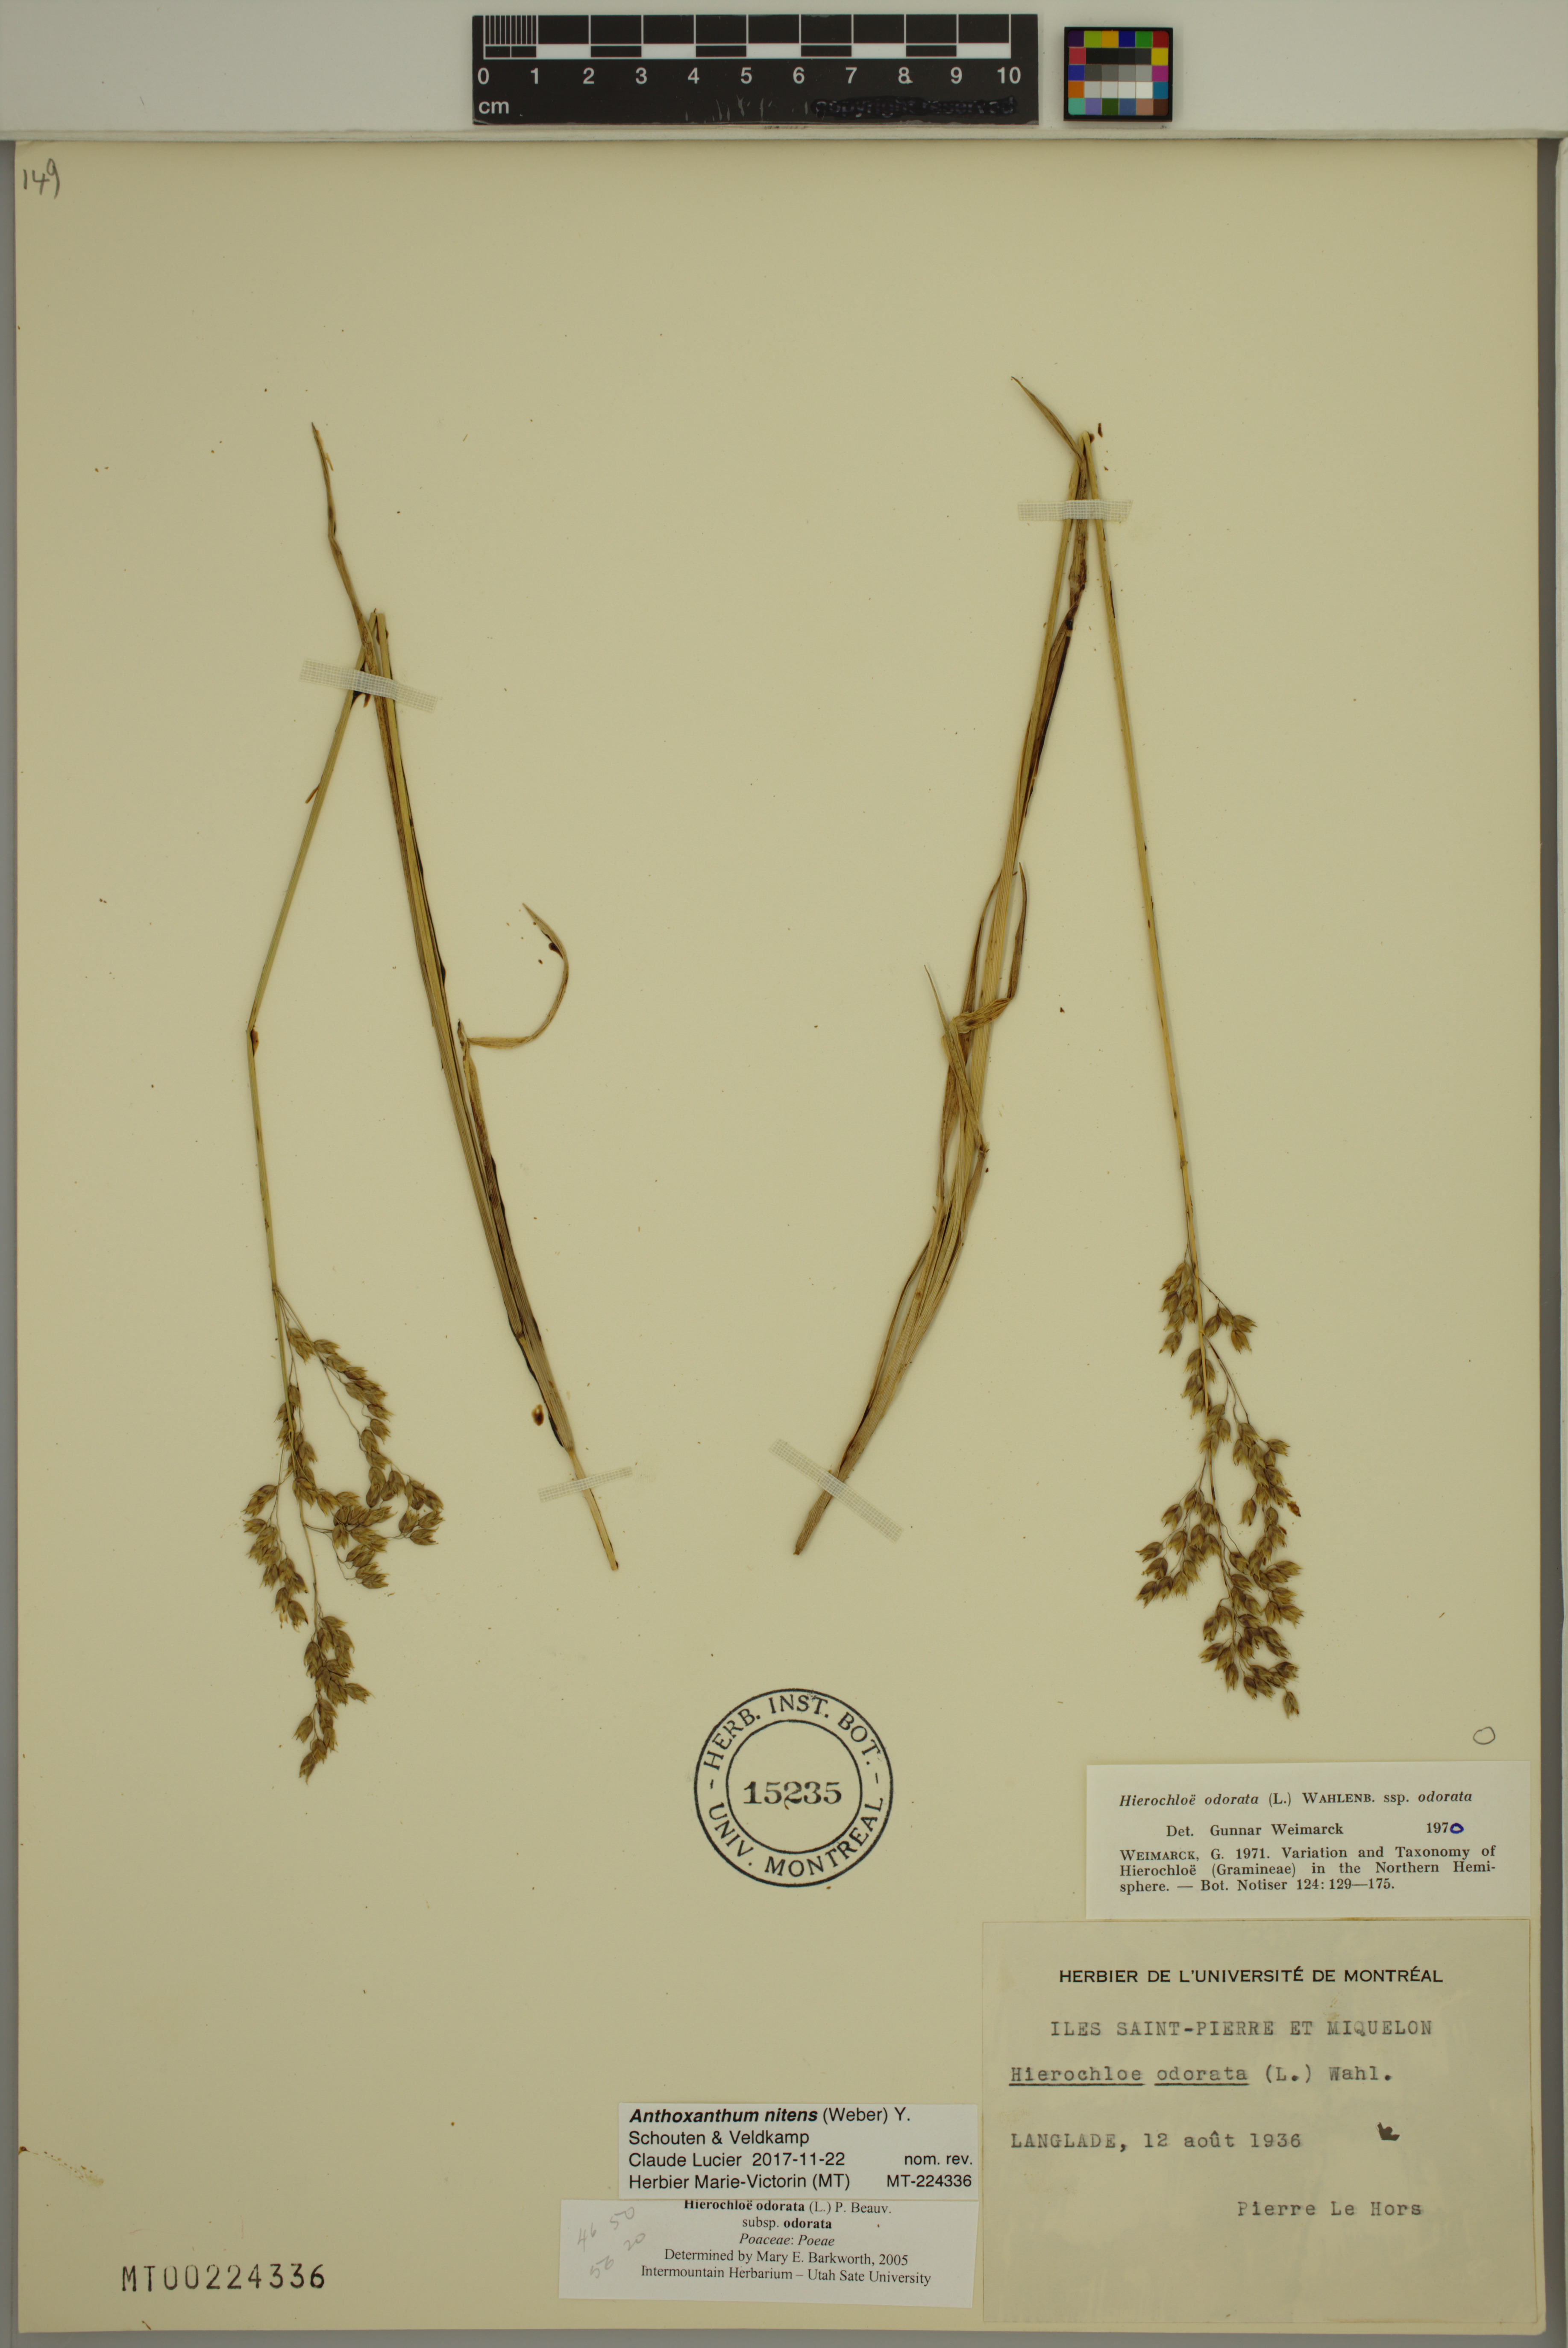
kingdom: Plantae
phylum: Tracheophyta
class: Liliopsida
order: Poales
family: Poaceae
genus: Anthoxanthum
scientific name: Anthoxanthum nitens
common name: Holy grass
